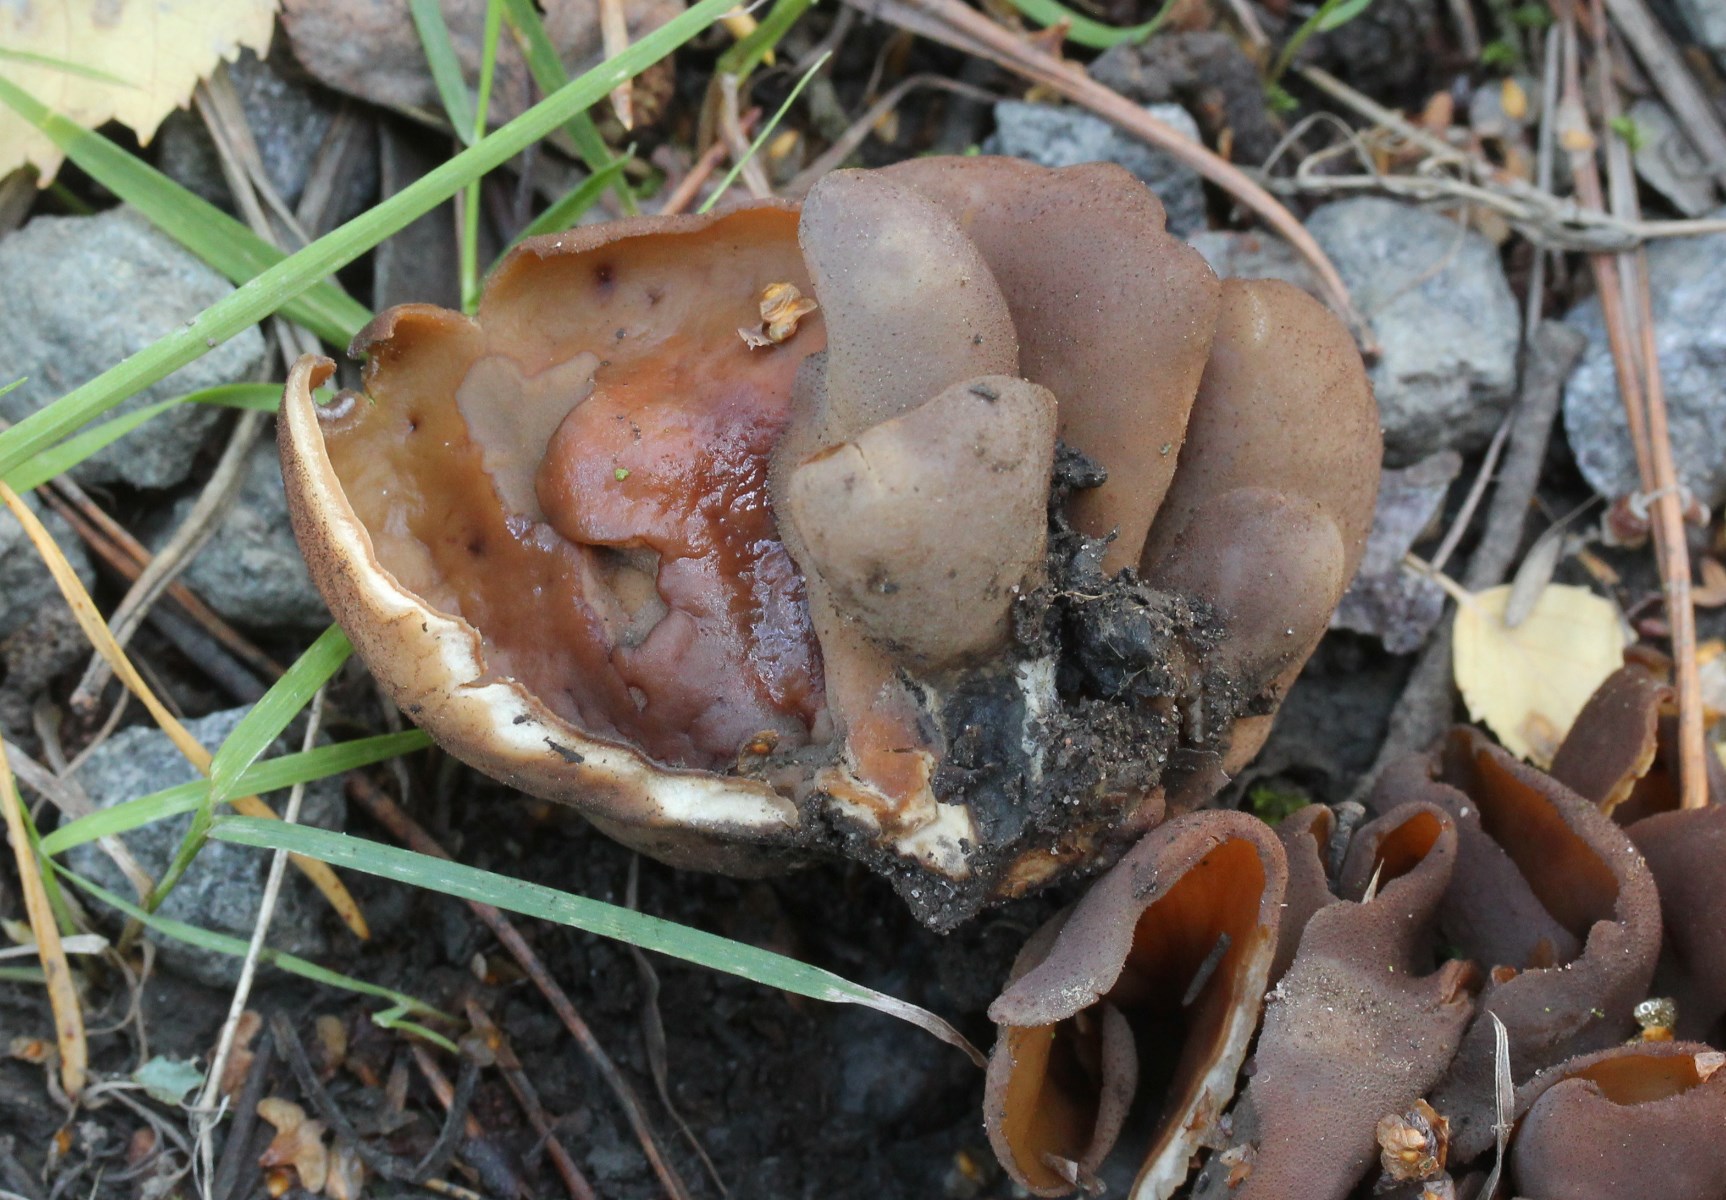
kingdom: Fungi
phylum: Ascomycota
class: Pezizomycetes
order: Pezizales
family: Otideaceae
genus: Otidea
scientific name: Otidea bufonia
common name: brun ørebæger
